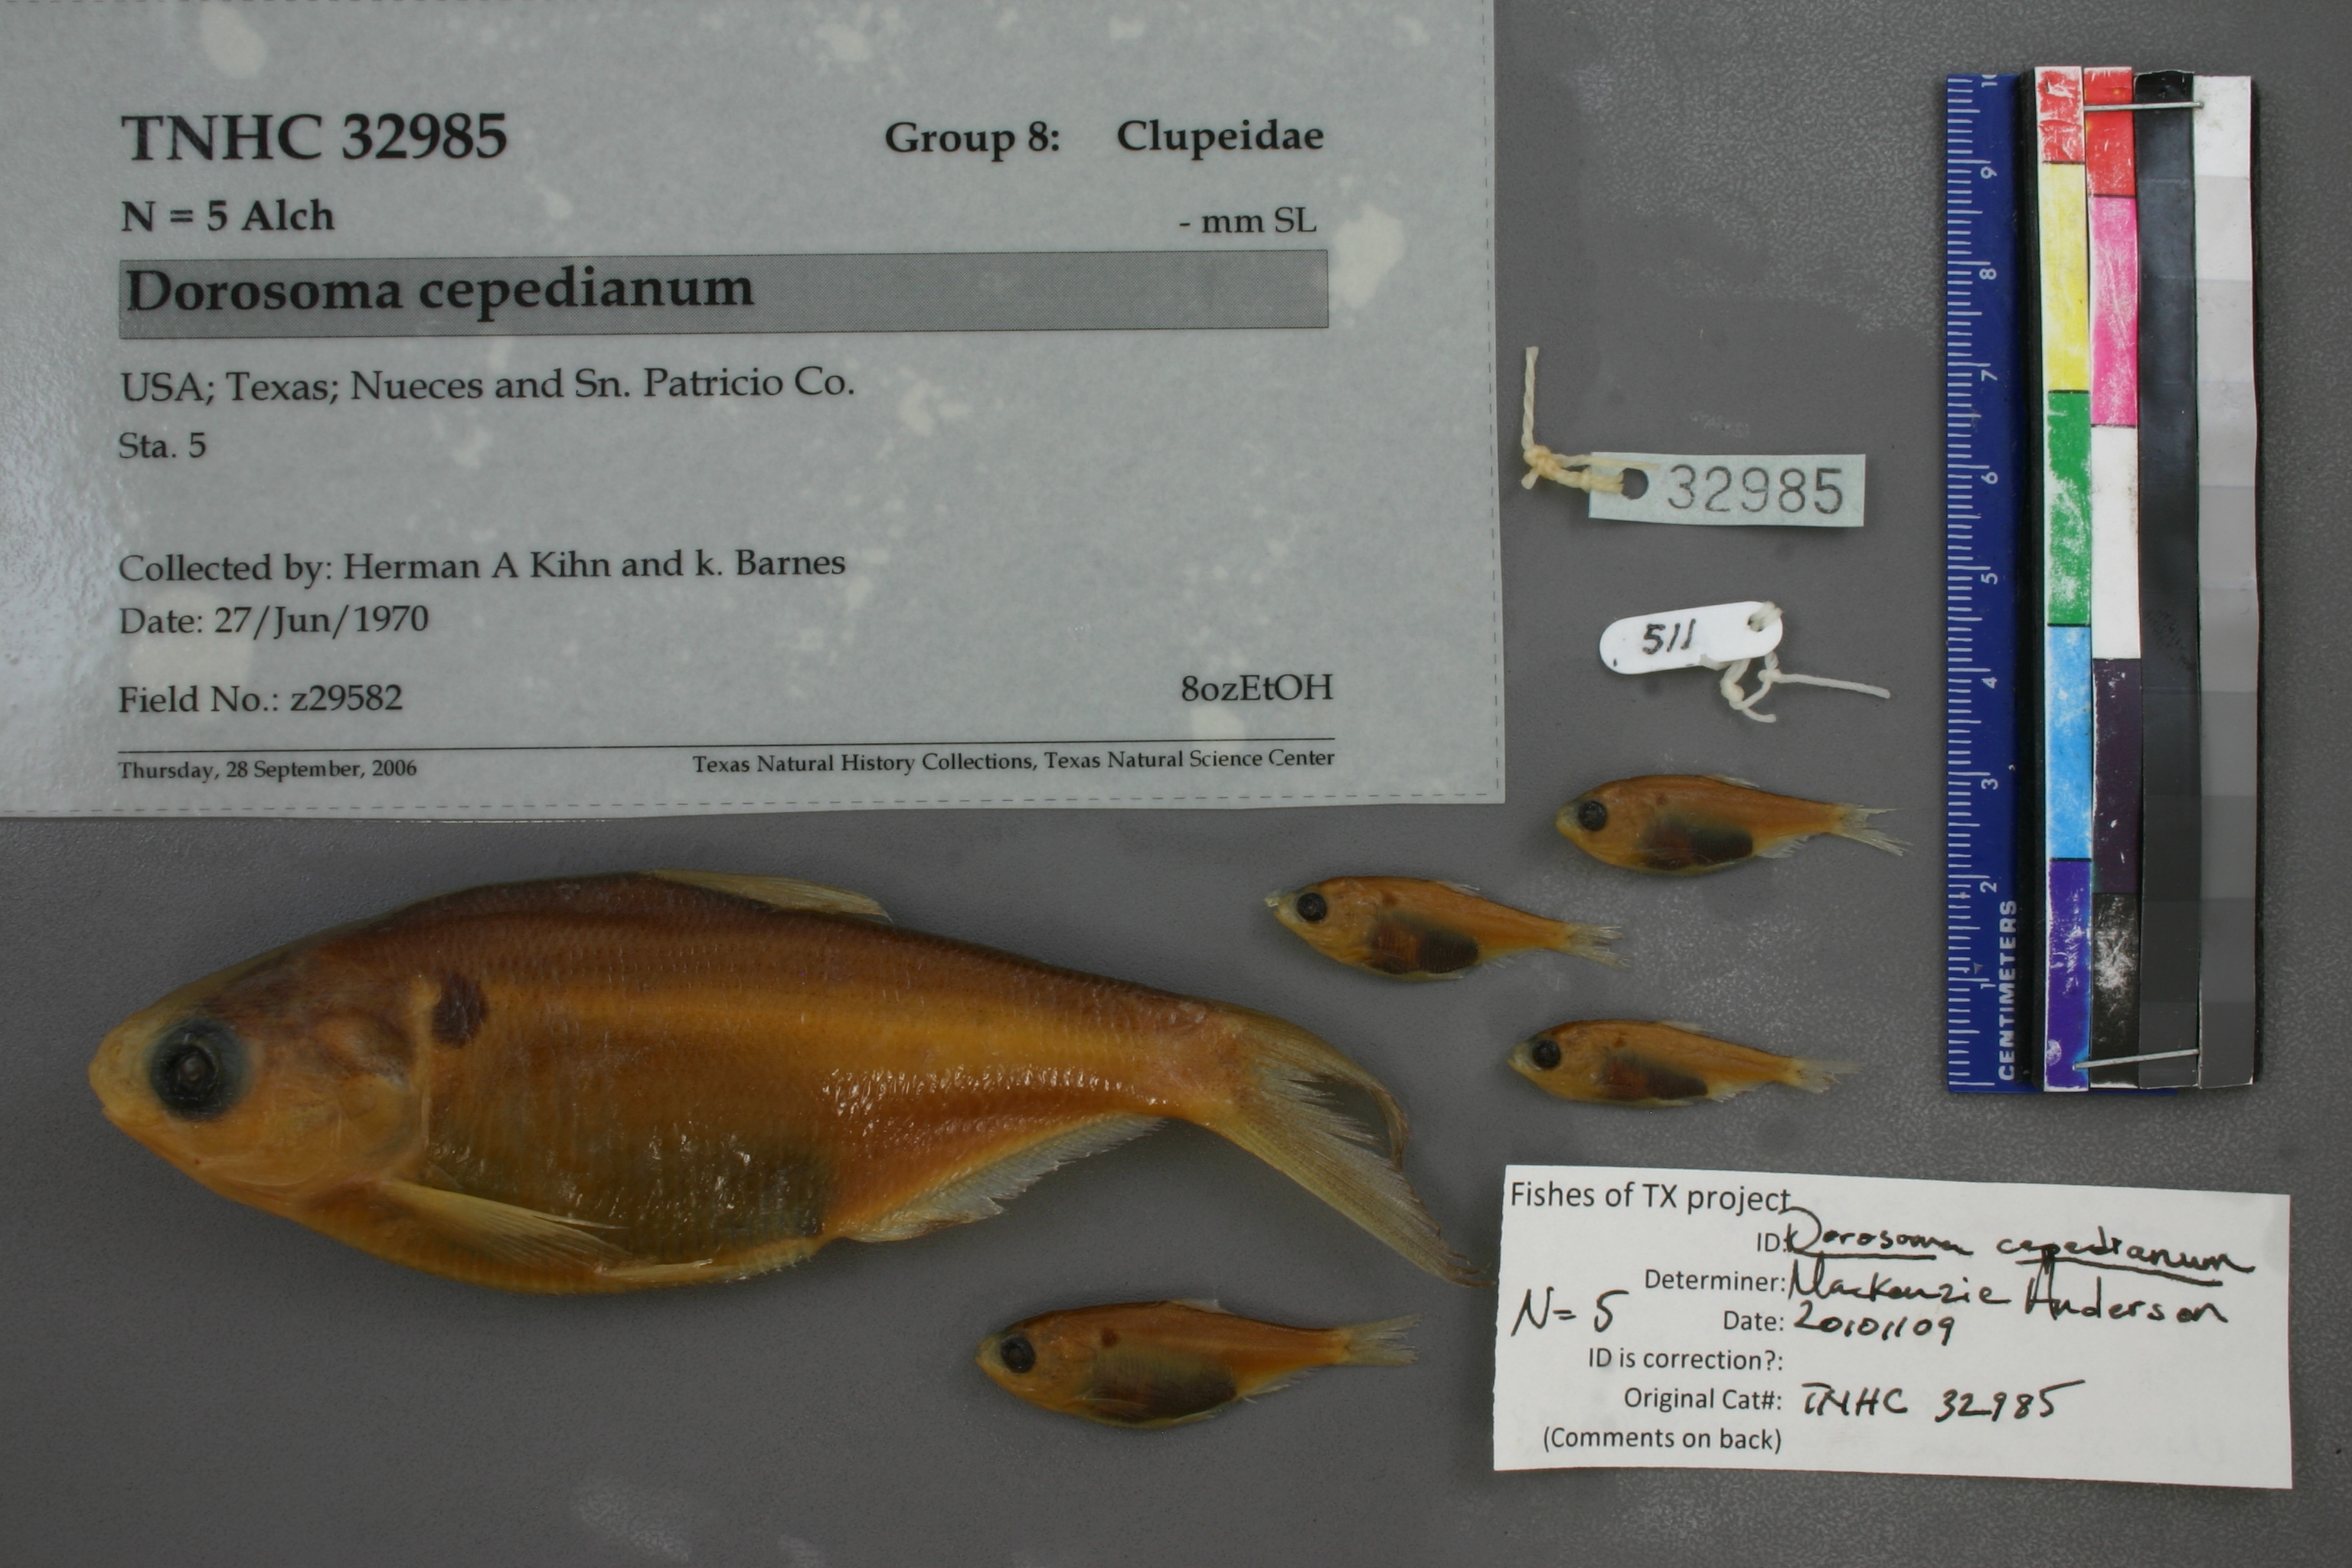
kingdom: Animalia
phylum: Chordata
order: Clupeiformes
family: Clupeidae
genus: Dorosoma
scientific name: Dorosoma cepedianum
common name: Gizzard shad
